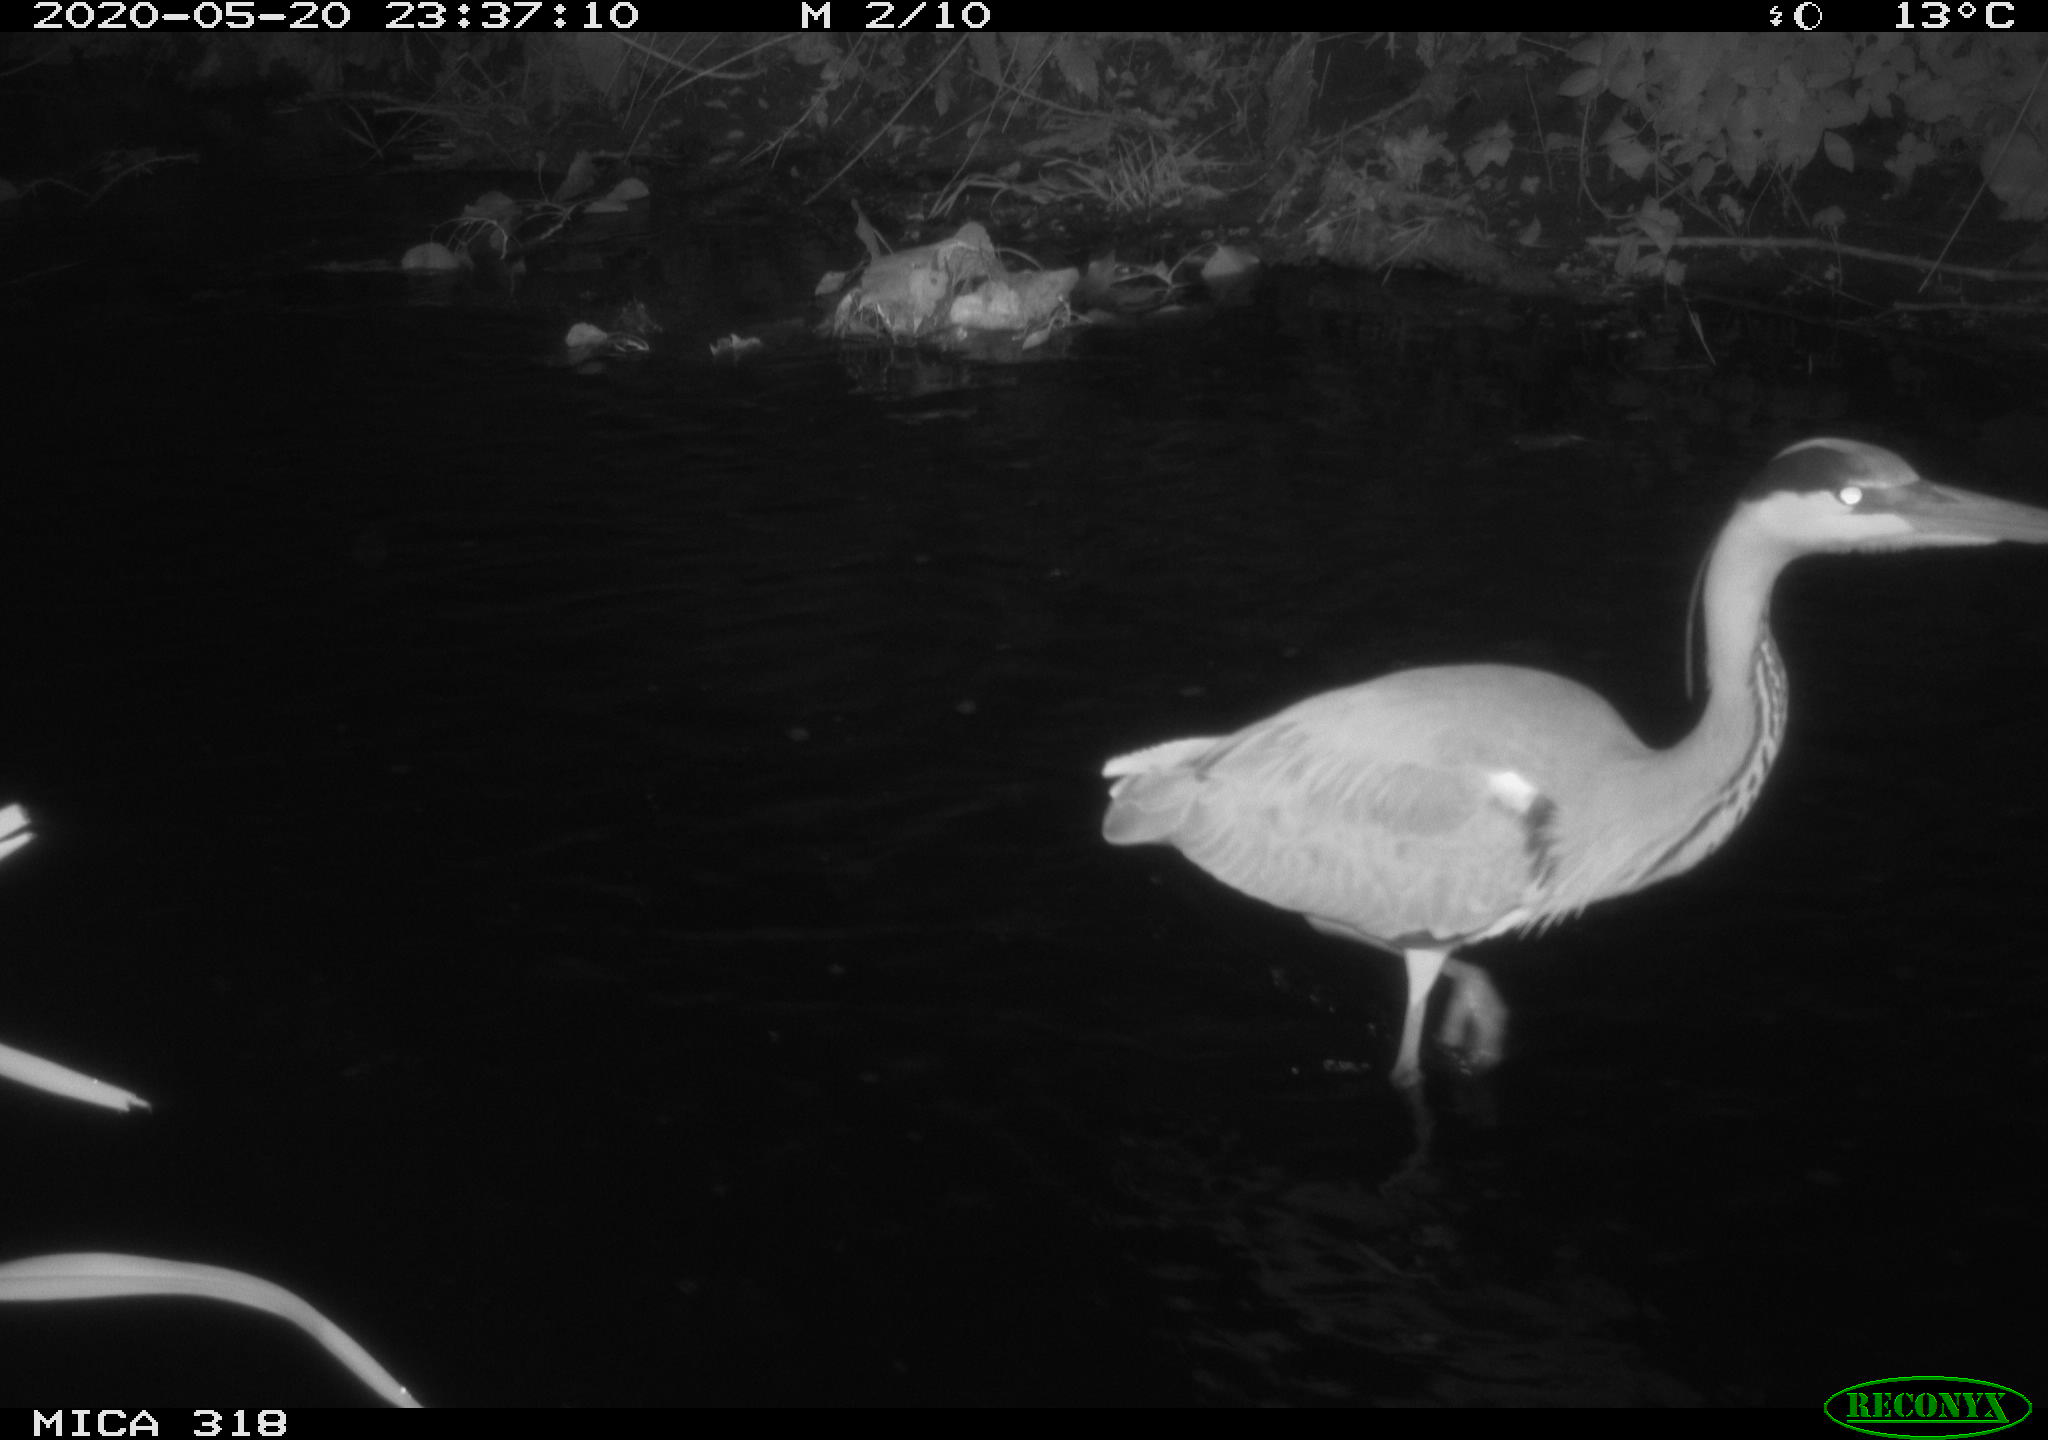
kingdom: Animalia
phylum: Chordata
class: Aves
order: Pelecaniformes
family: Ardeidae
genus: Ardea
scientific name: Ardea cinerea
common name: Grey heron
